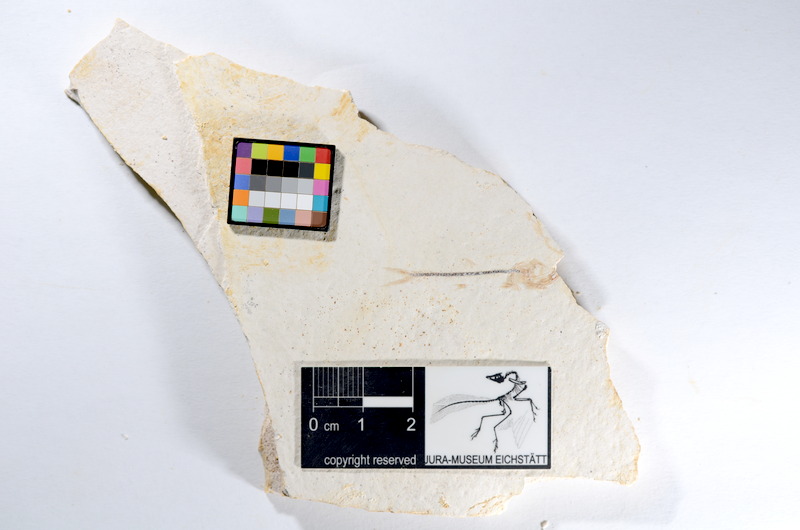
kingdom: Animalia
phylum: Chordata
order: Salmoniformes
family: Orthogonikleithridae
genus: Orthogonikleithrus
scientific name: Orthogonikleithrus hoelli
